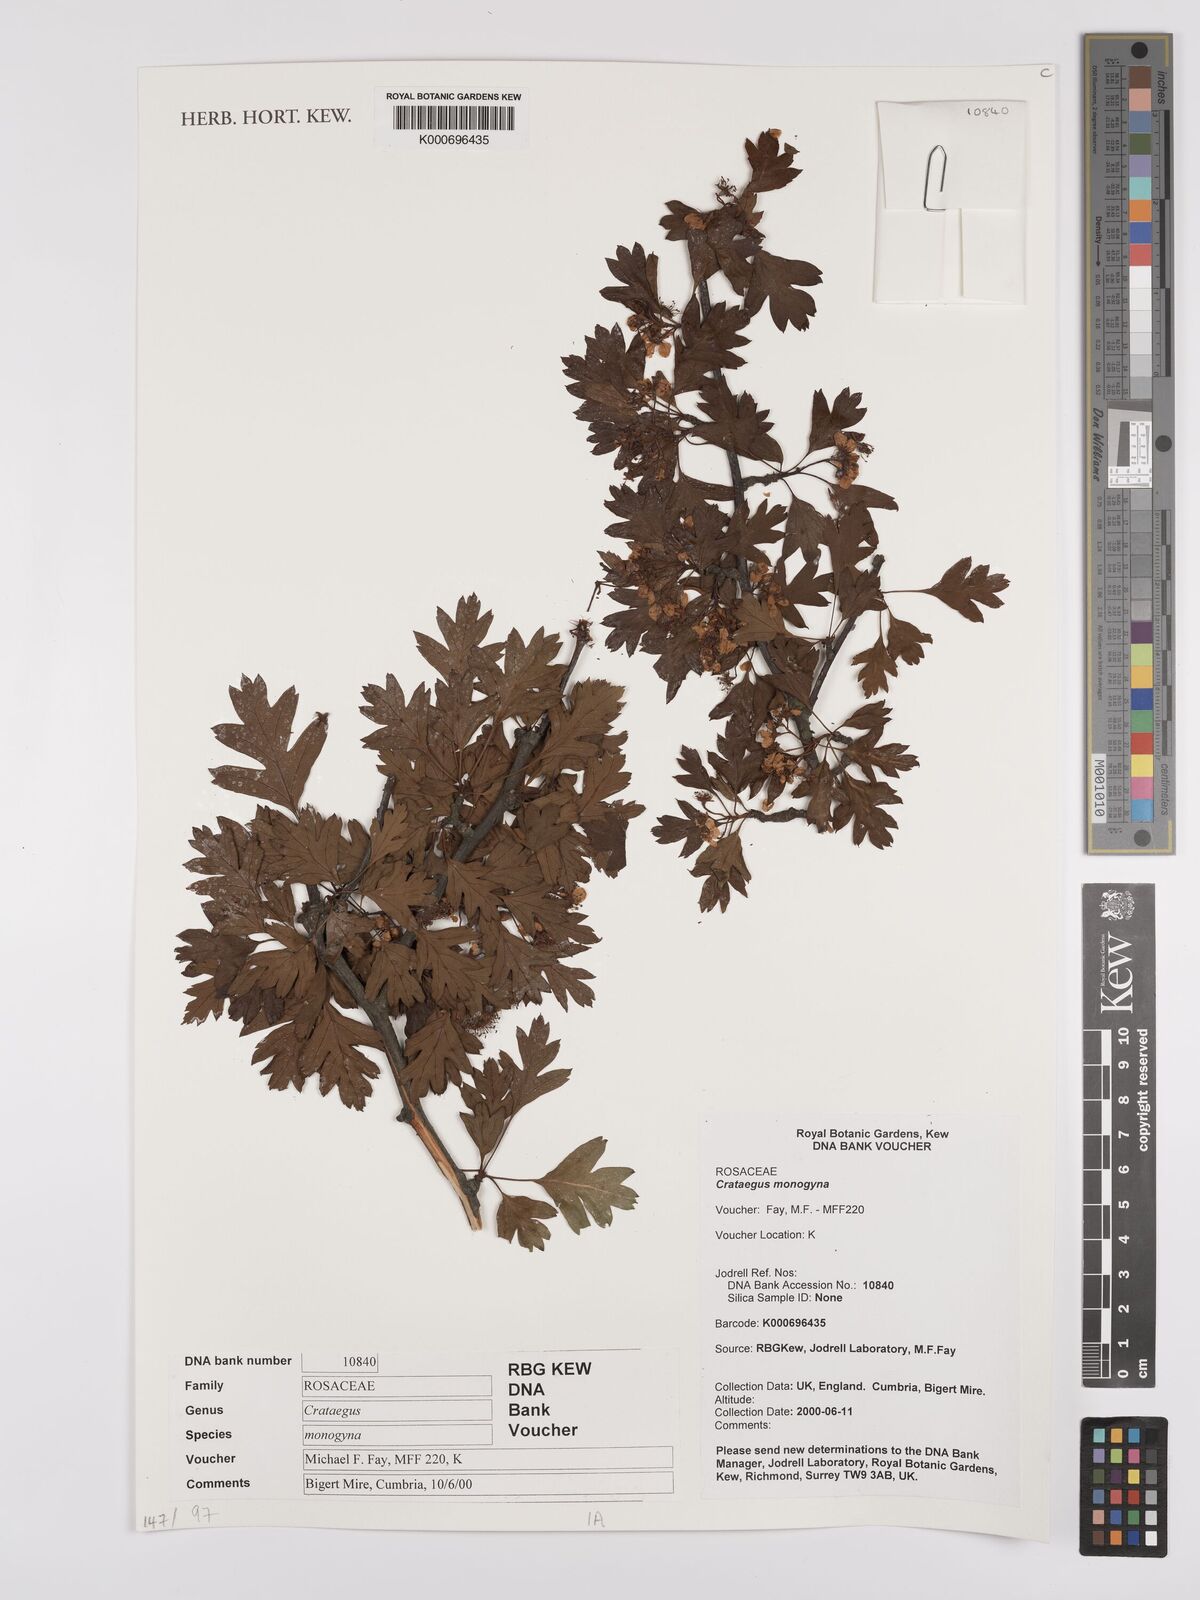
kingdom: Plantae
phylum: Tracheophyta
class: Magnoliopsida
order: Rosales
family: Rosaceae
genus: Crataegus
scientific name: Crataegus monogyna
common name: Hawthorn
